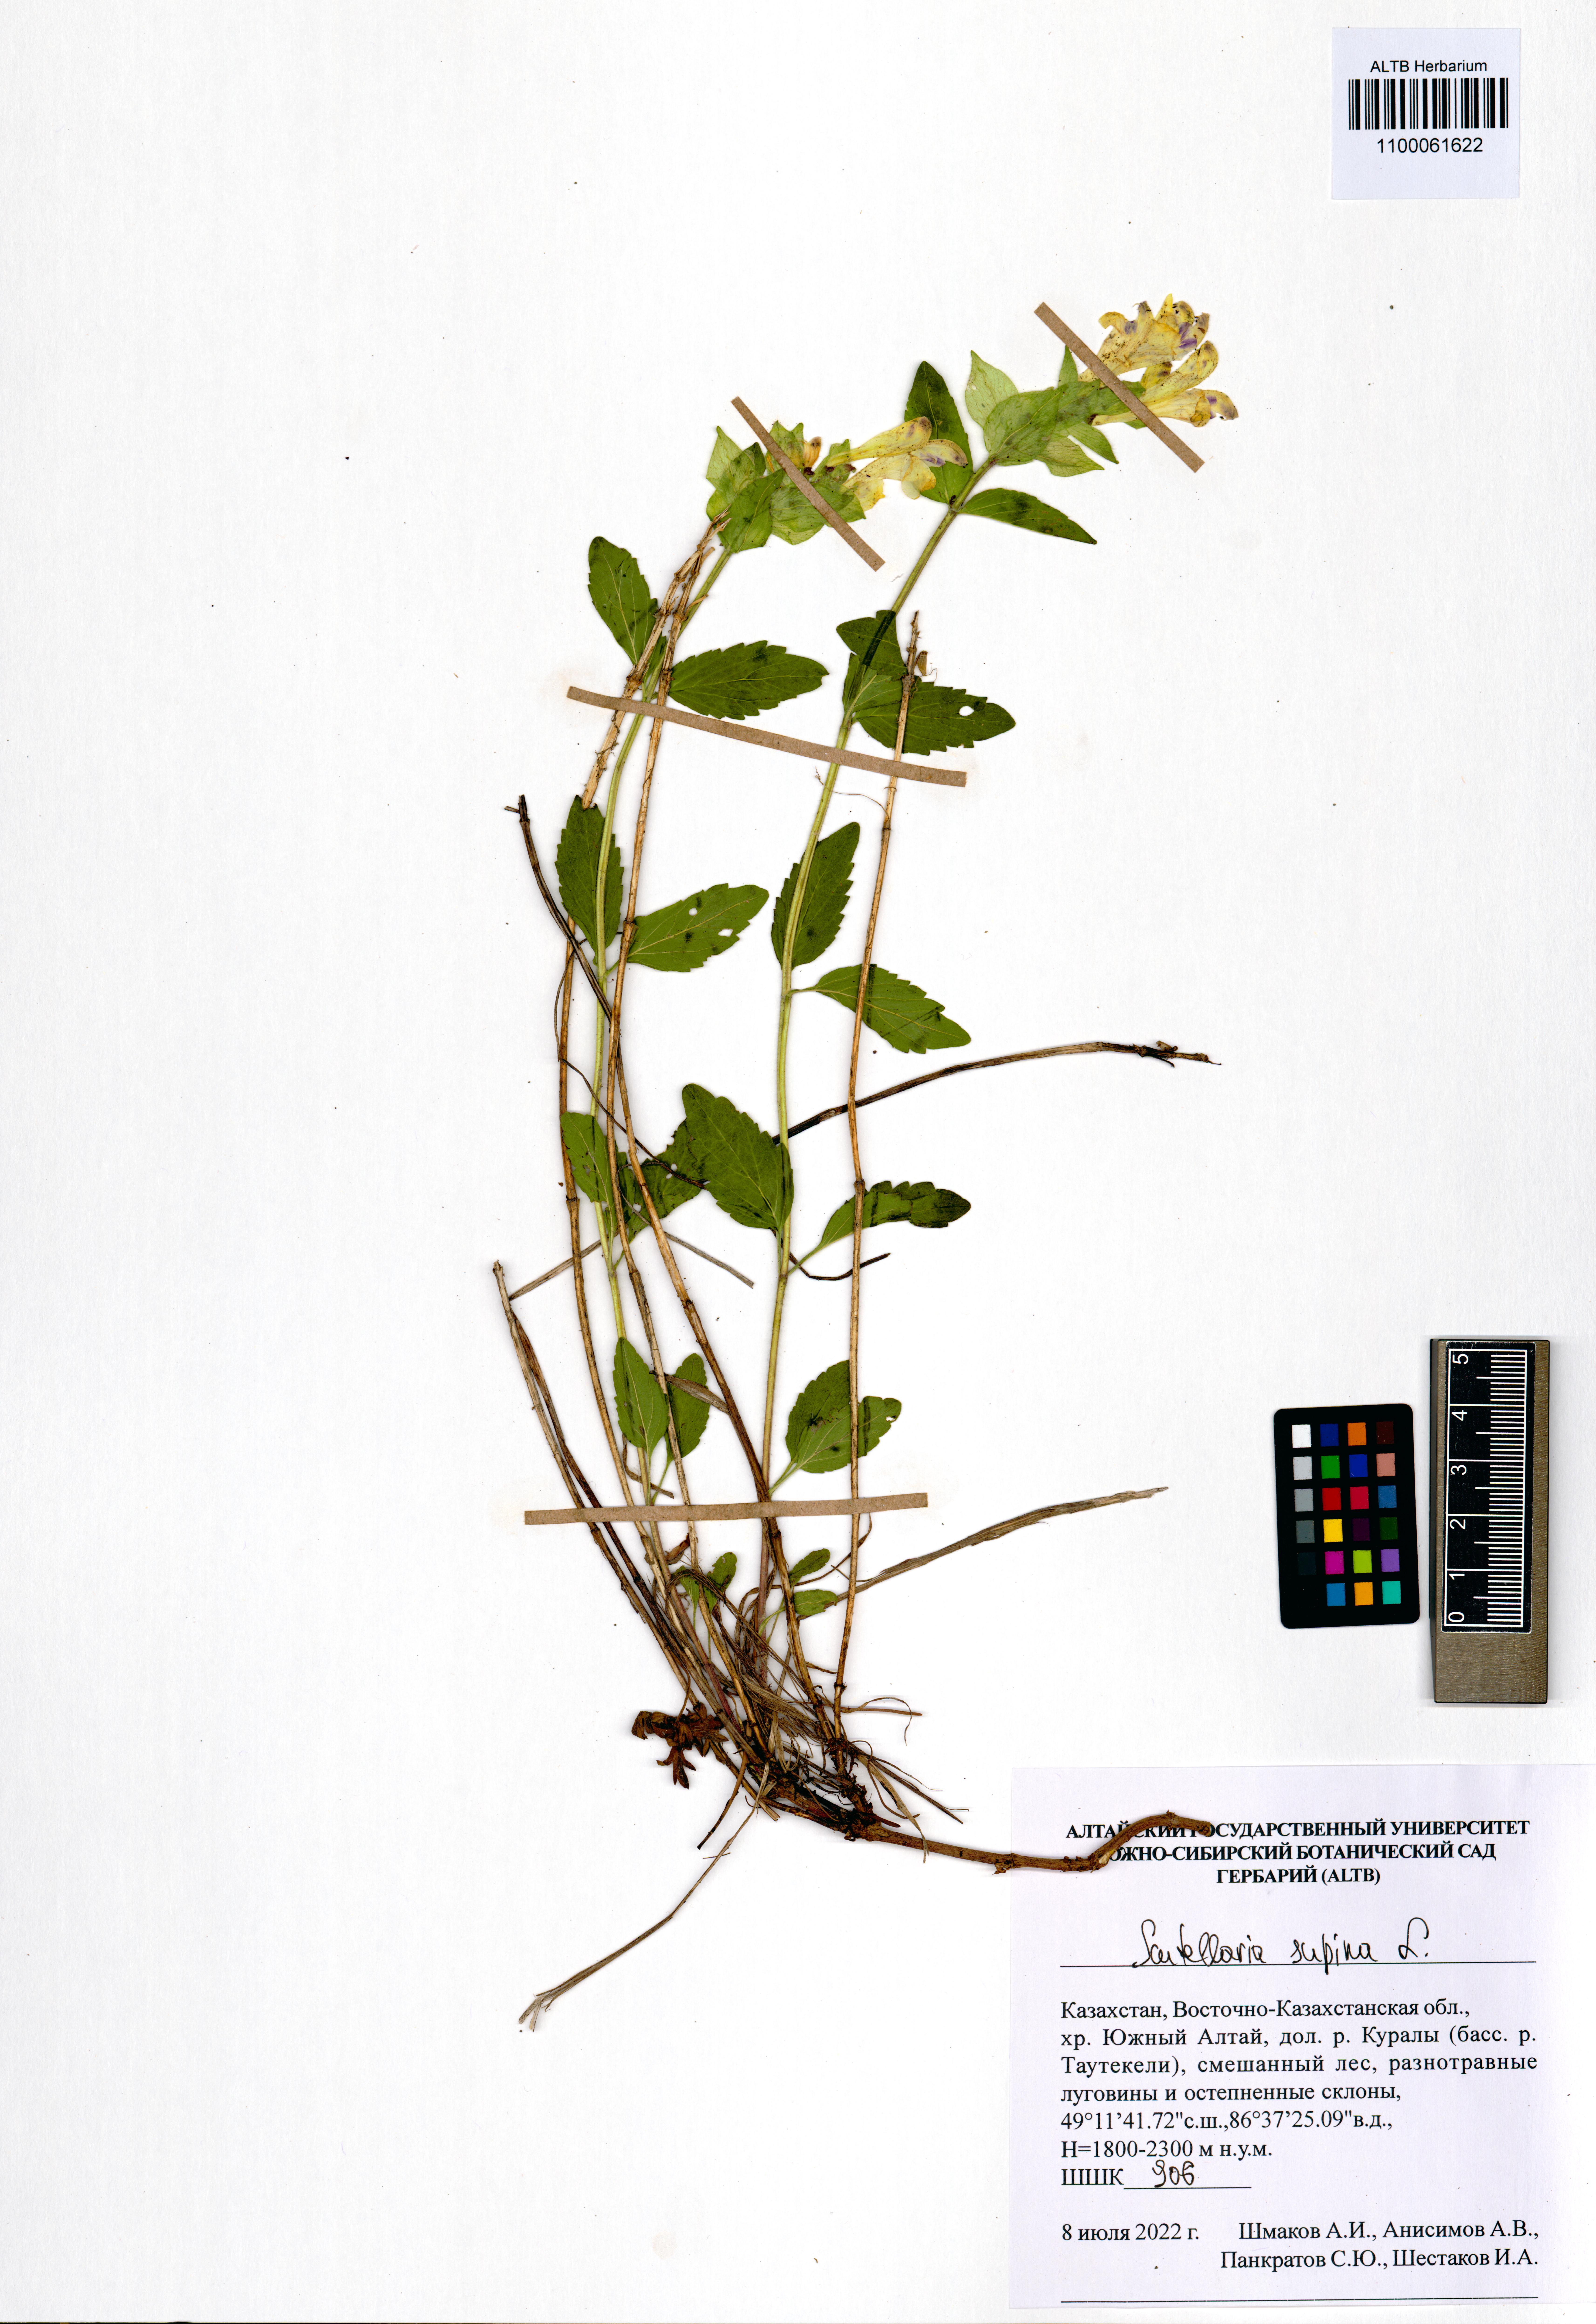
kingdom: Plantae
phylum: Tracheophyta
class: Magnoliopsida
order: Lamiales
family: Lamiaceae
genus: Scutellaria
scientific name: Scutellaria supina
